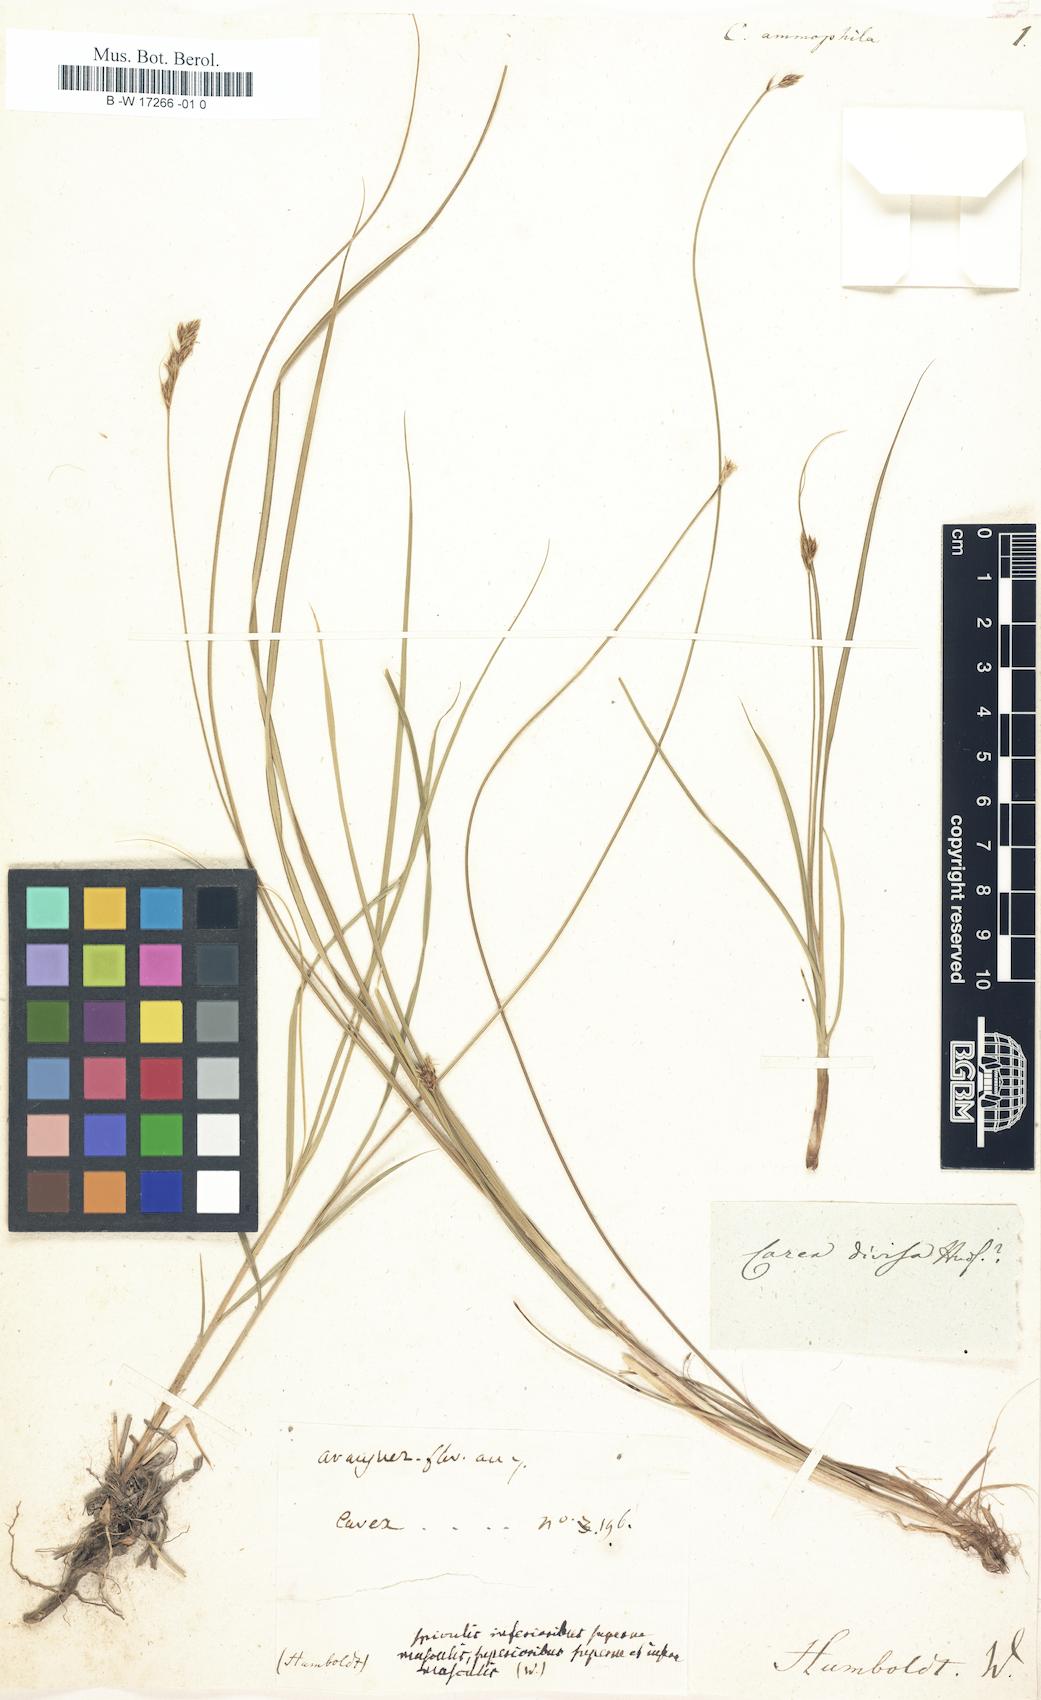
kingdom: Plantae
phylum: Tracheophyta
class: Liliopsida
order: Poales
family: Cyperaceae
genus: Carex
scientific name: Carex
